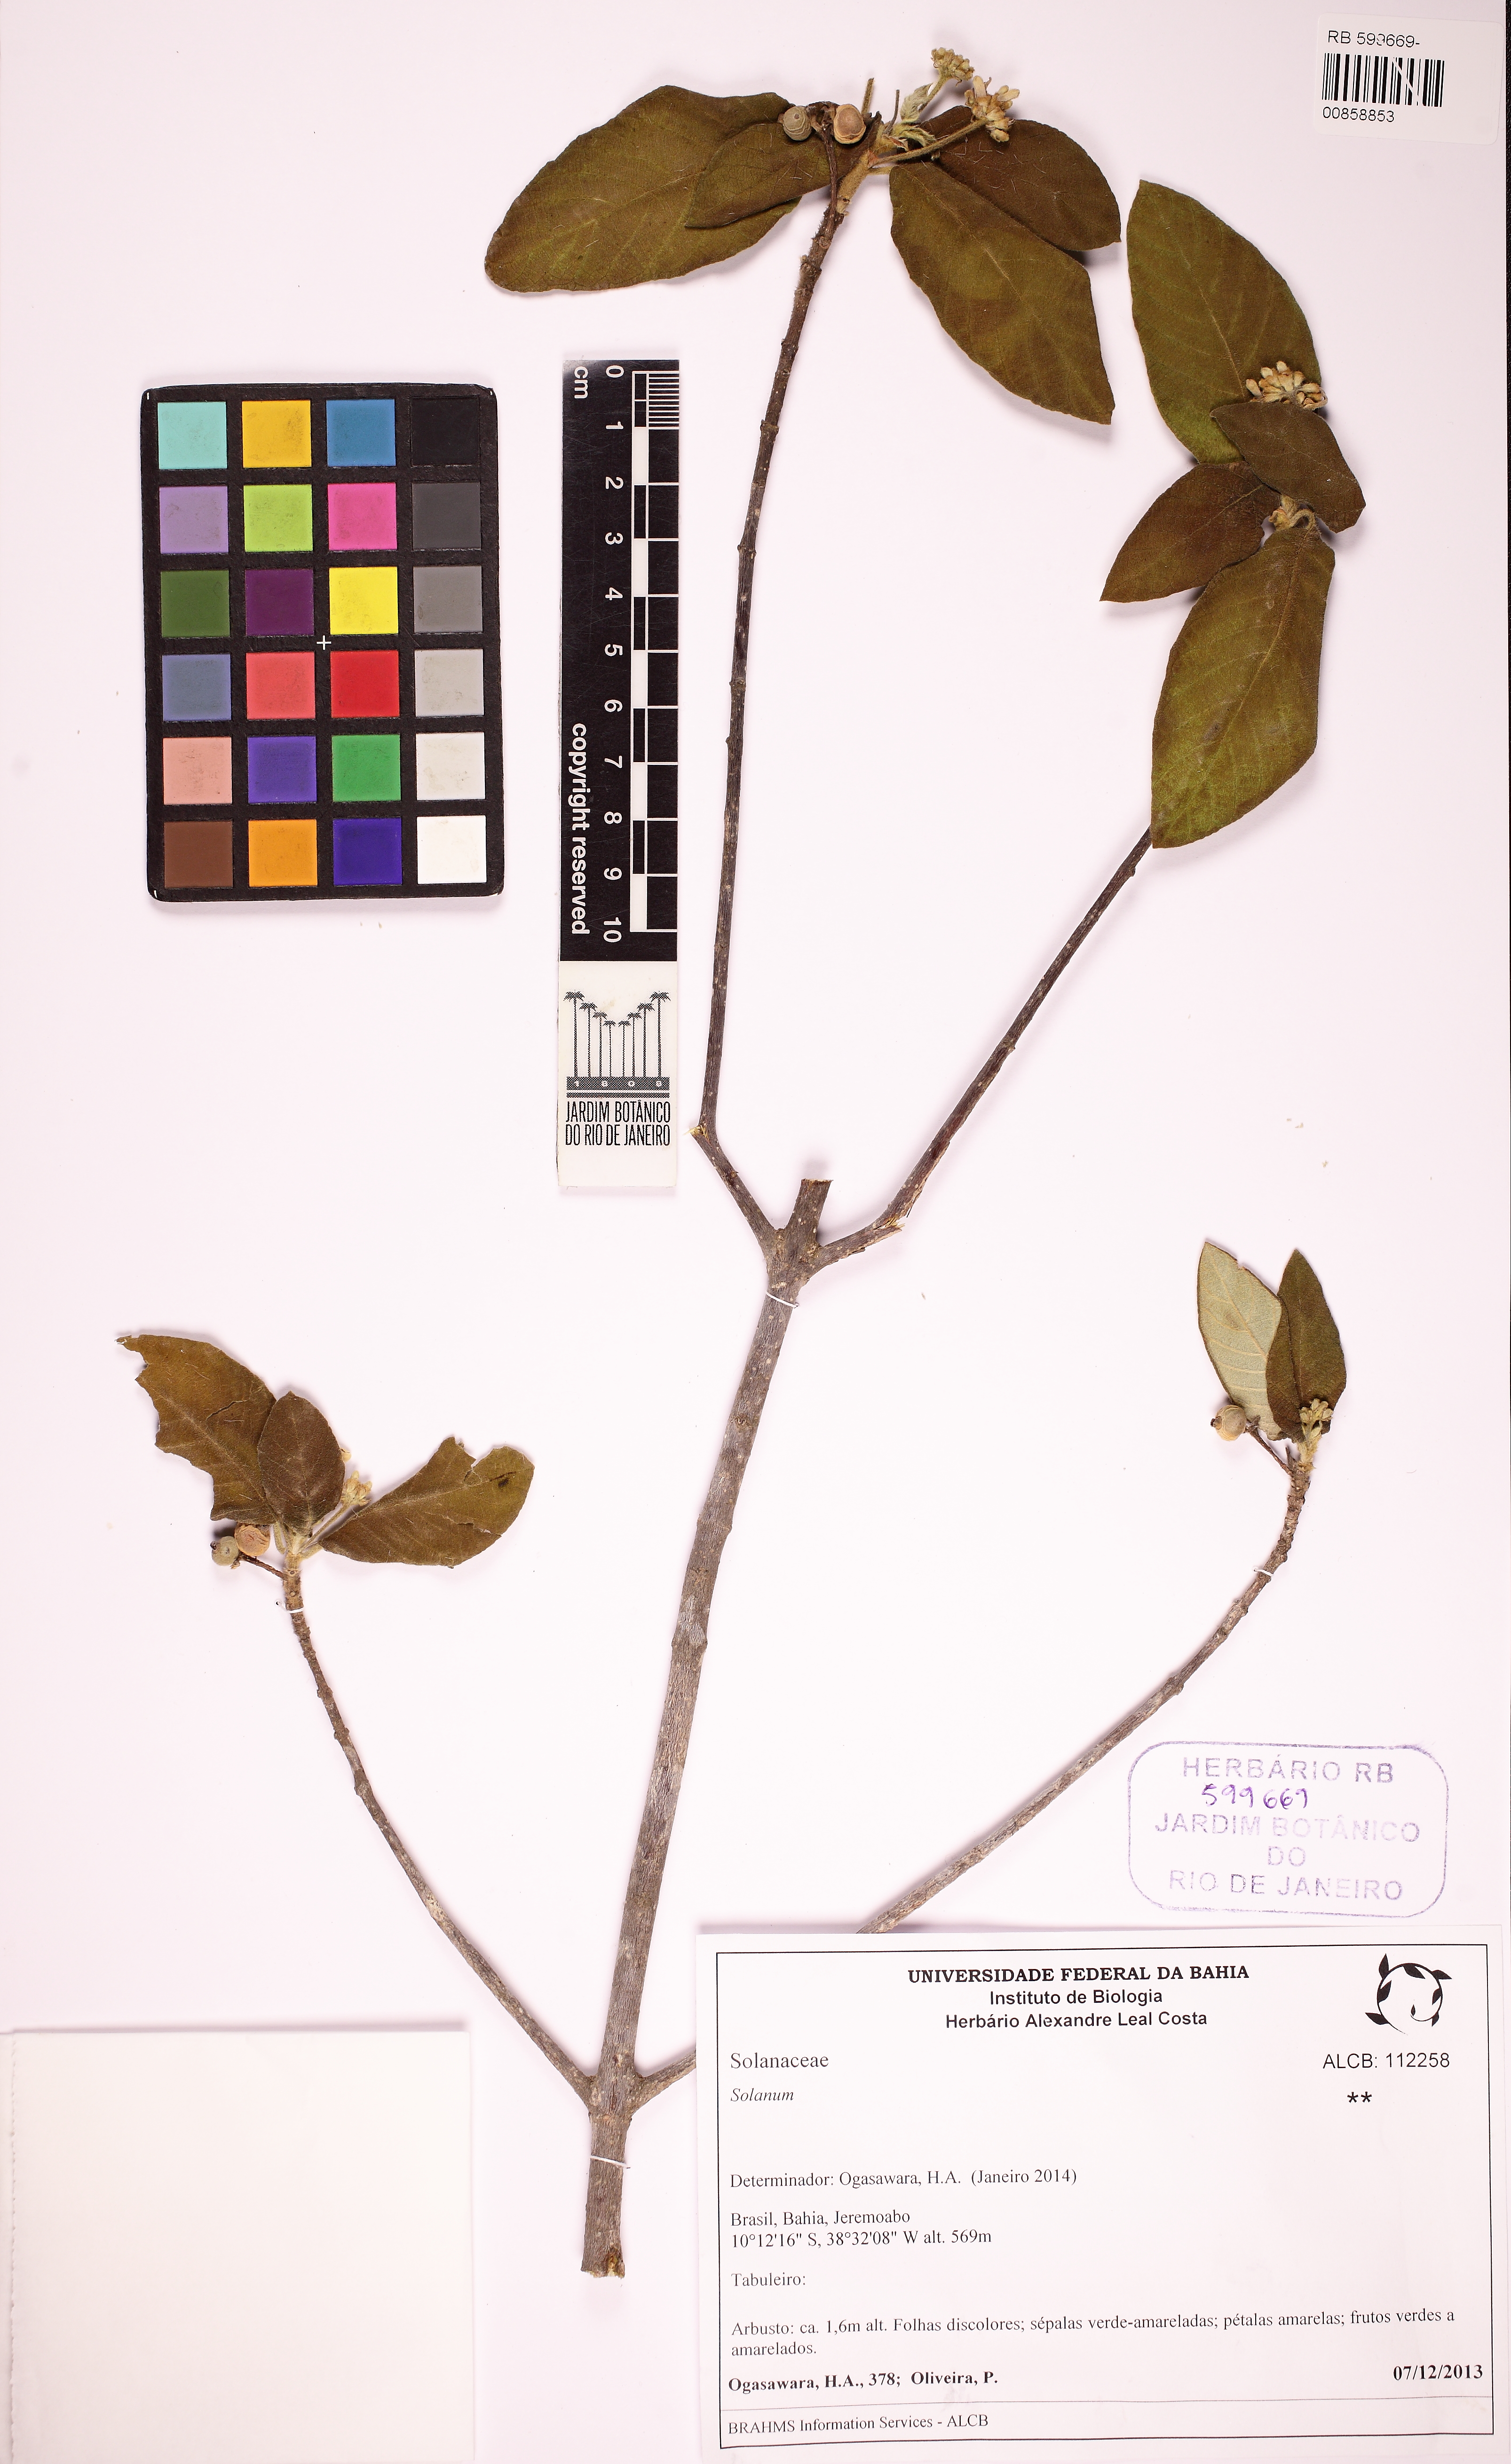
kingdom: Plantae
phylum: Tracheophyta
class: Magnoliopsida
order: Gentianales
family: Rubiaceae
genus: Guettarda
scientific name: Guettarda
